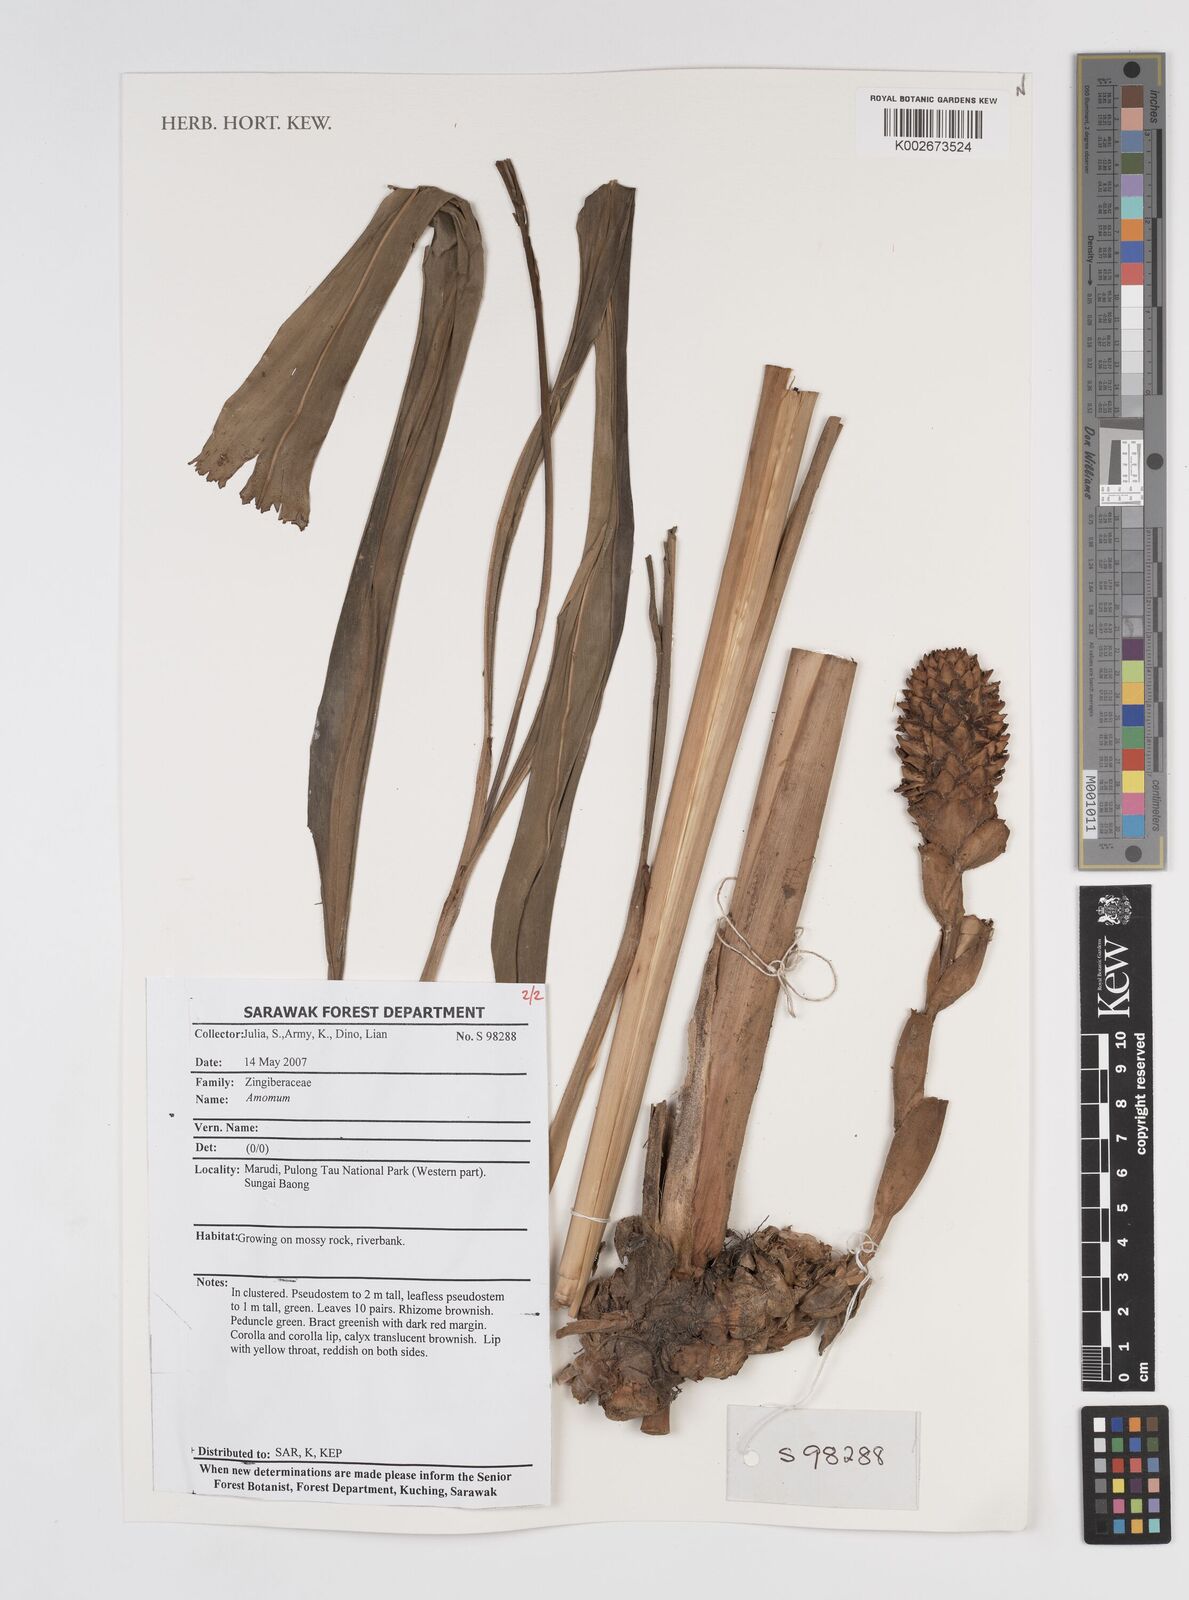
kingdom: Plantae
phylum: Tracheophyta
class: Liliopsida
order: Zingiberales
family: Zingiberaceae
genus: Amomum
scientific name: Amomum
